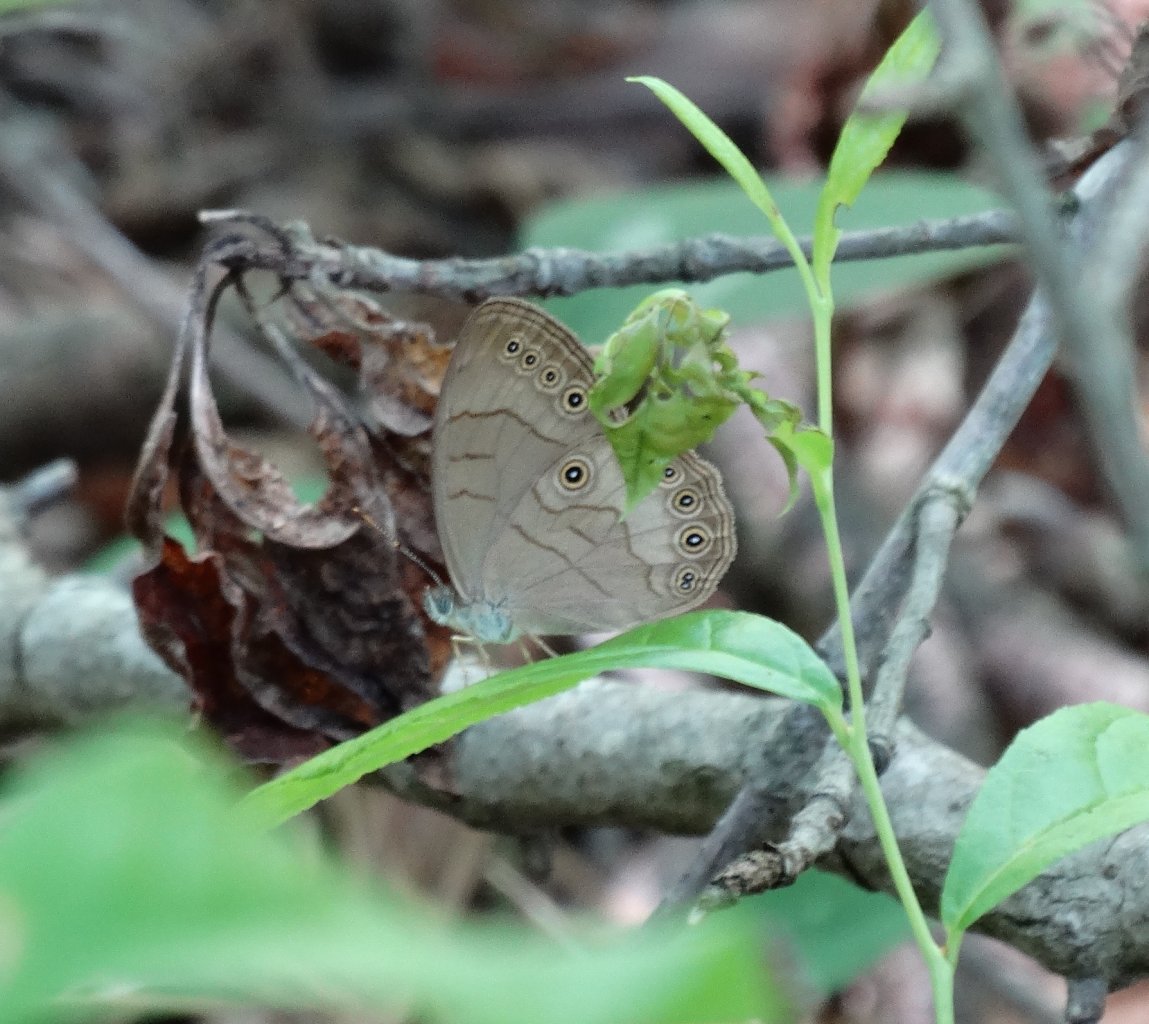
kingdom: Animalia
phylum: Arthropoda
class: Insecta
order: Lepidoptera
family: Nymphalidae
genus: Lethe
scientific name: Lethe eurydice
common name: Appalachian Eyed Brown
